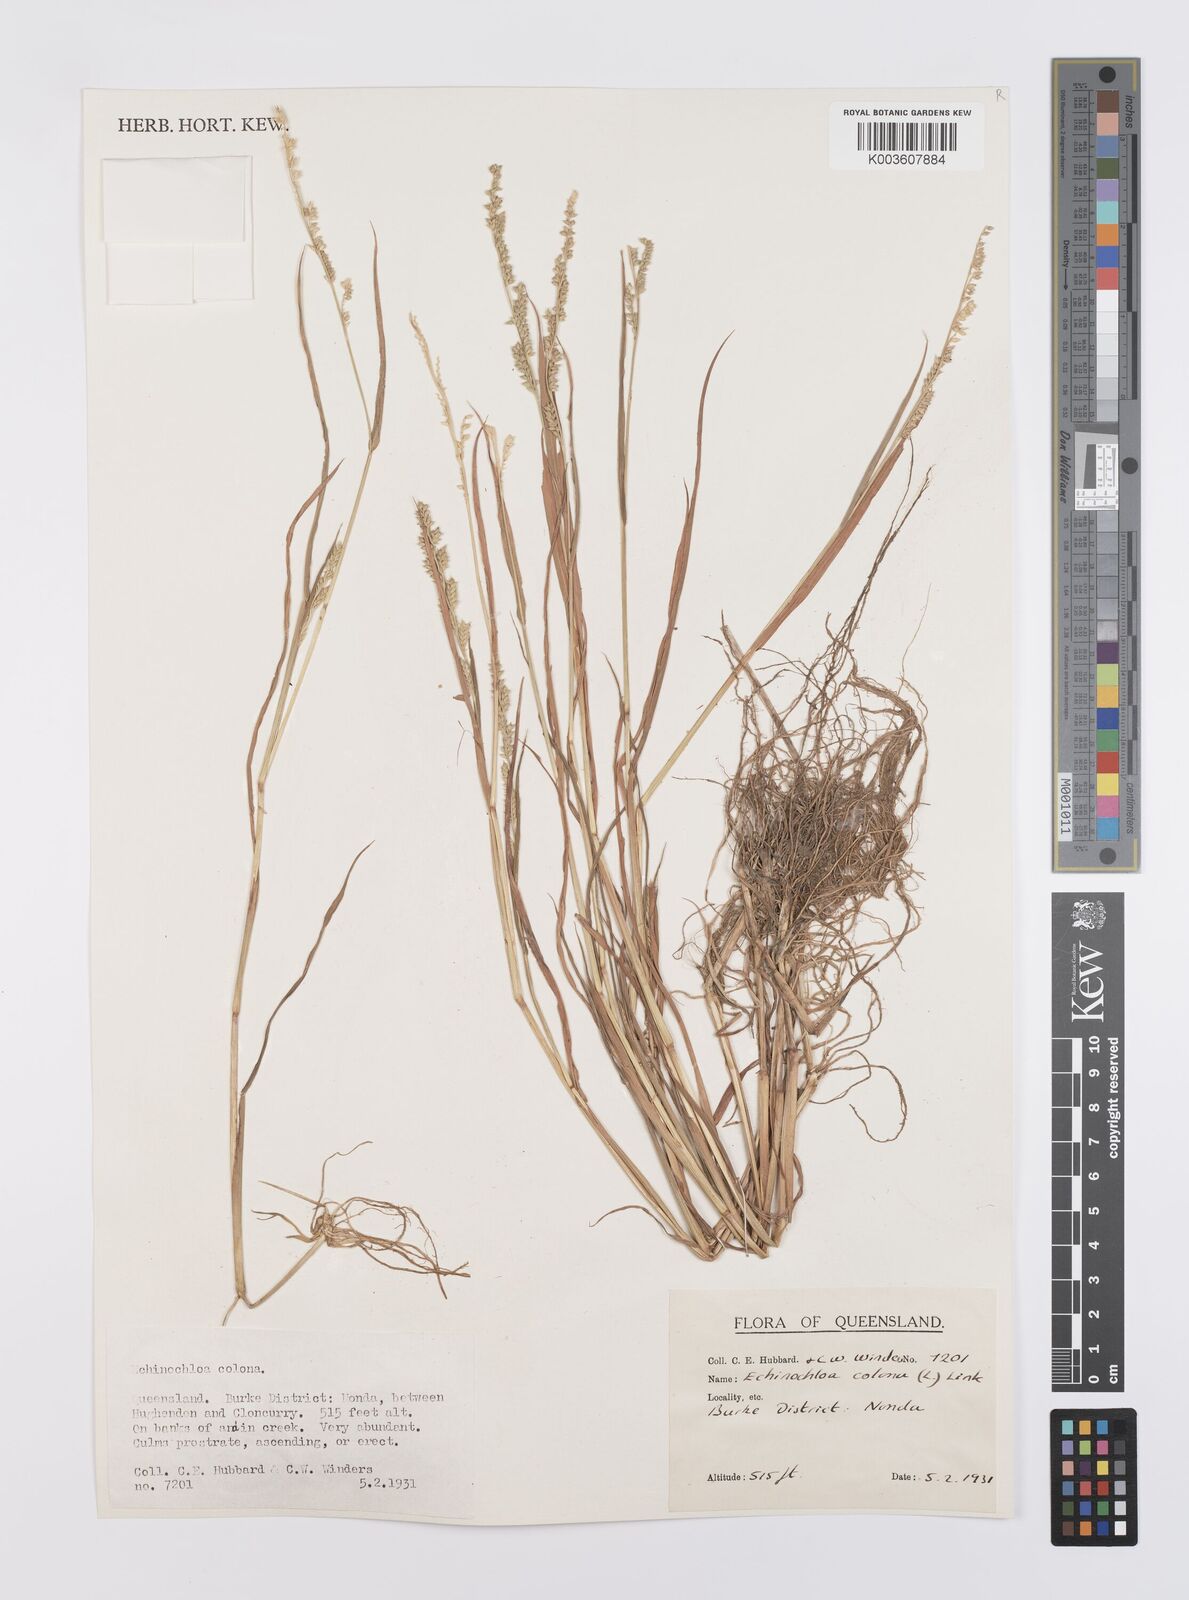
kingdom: Plantae
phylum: Tracheophyta
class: Liliopsida
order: Poales
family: Poaceae
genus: Echinochloa
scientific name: Echinochloa colonum
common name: Jungle rice
